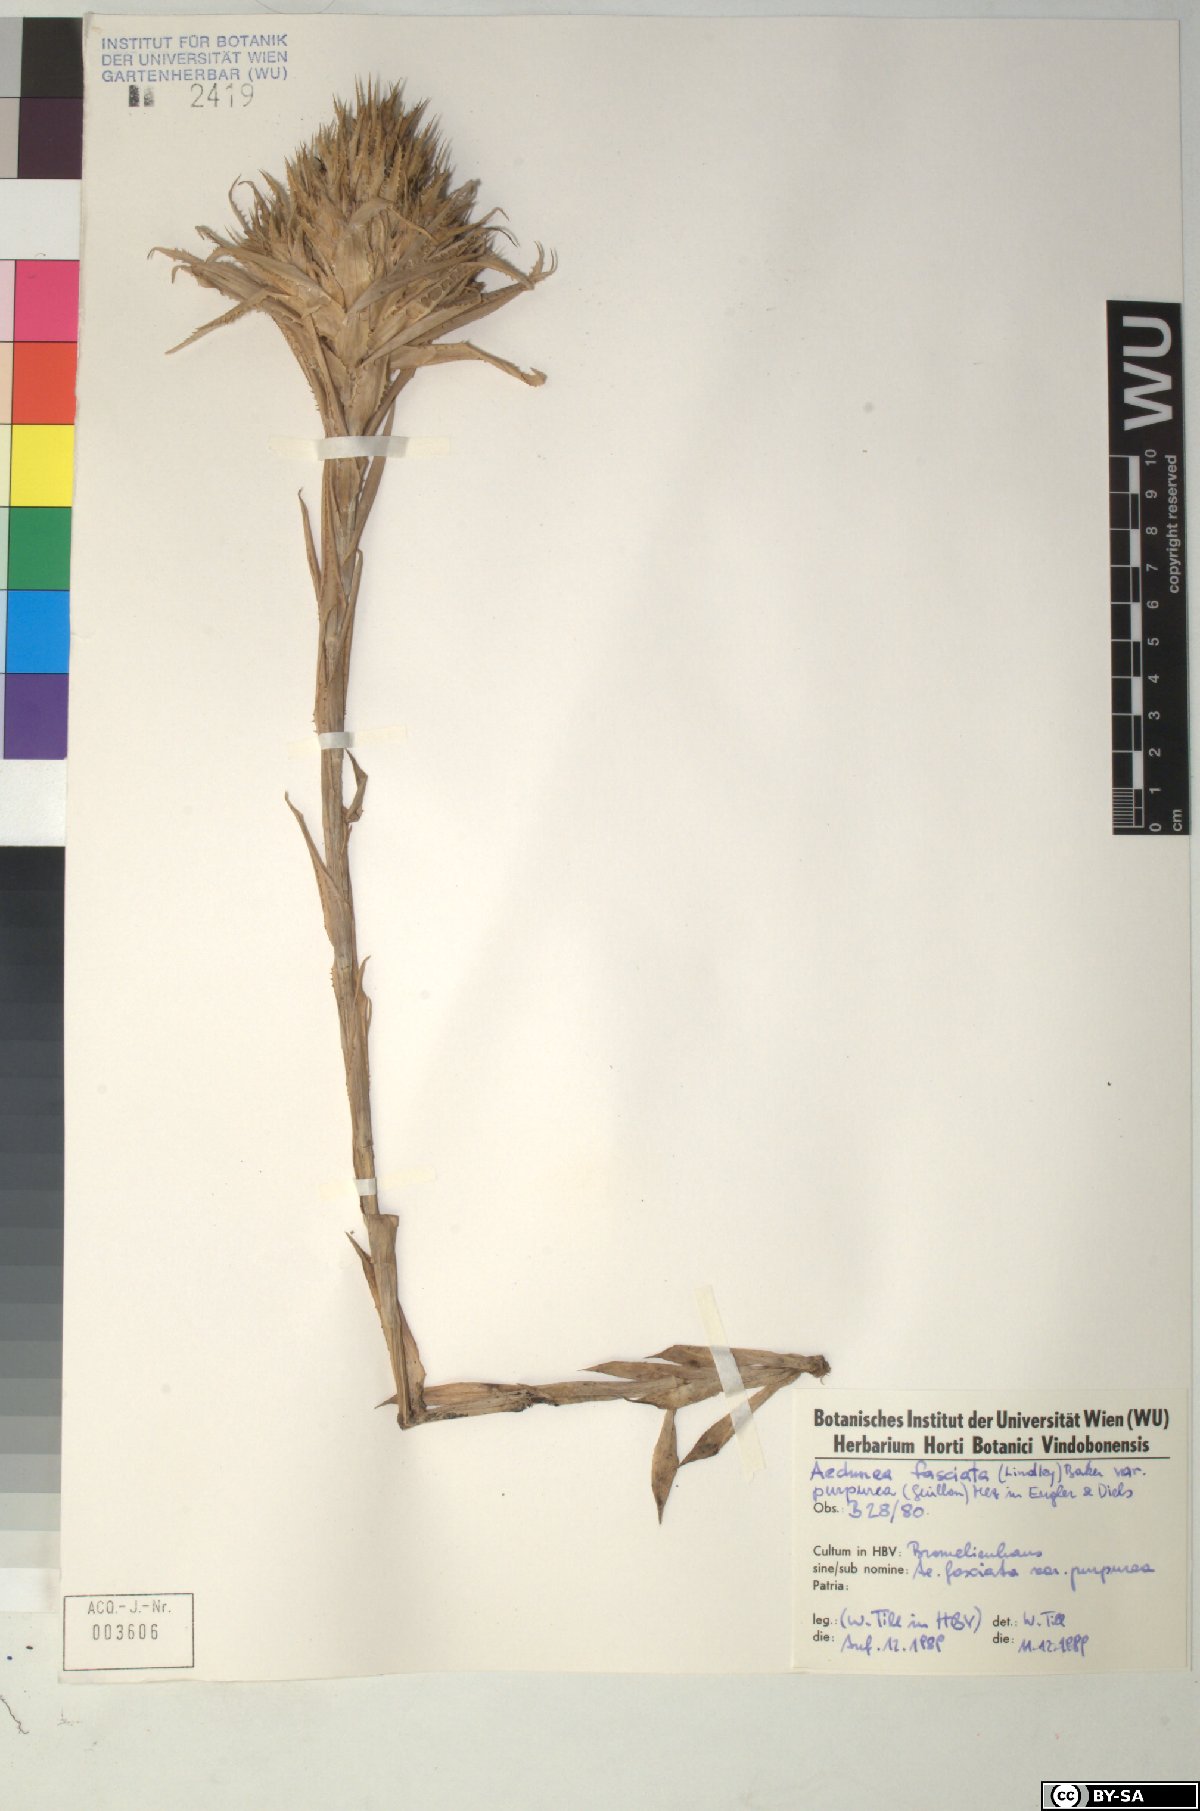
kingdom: Plantae
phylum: Tracheophyta
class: Liliopsida
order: Poales
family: Bromeliaceae
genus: Aechmea
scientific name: Aechmea fasciata
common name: Urnplant
